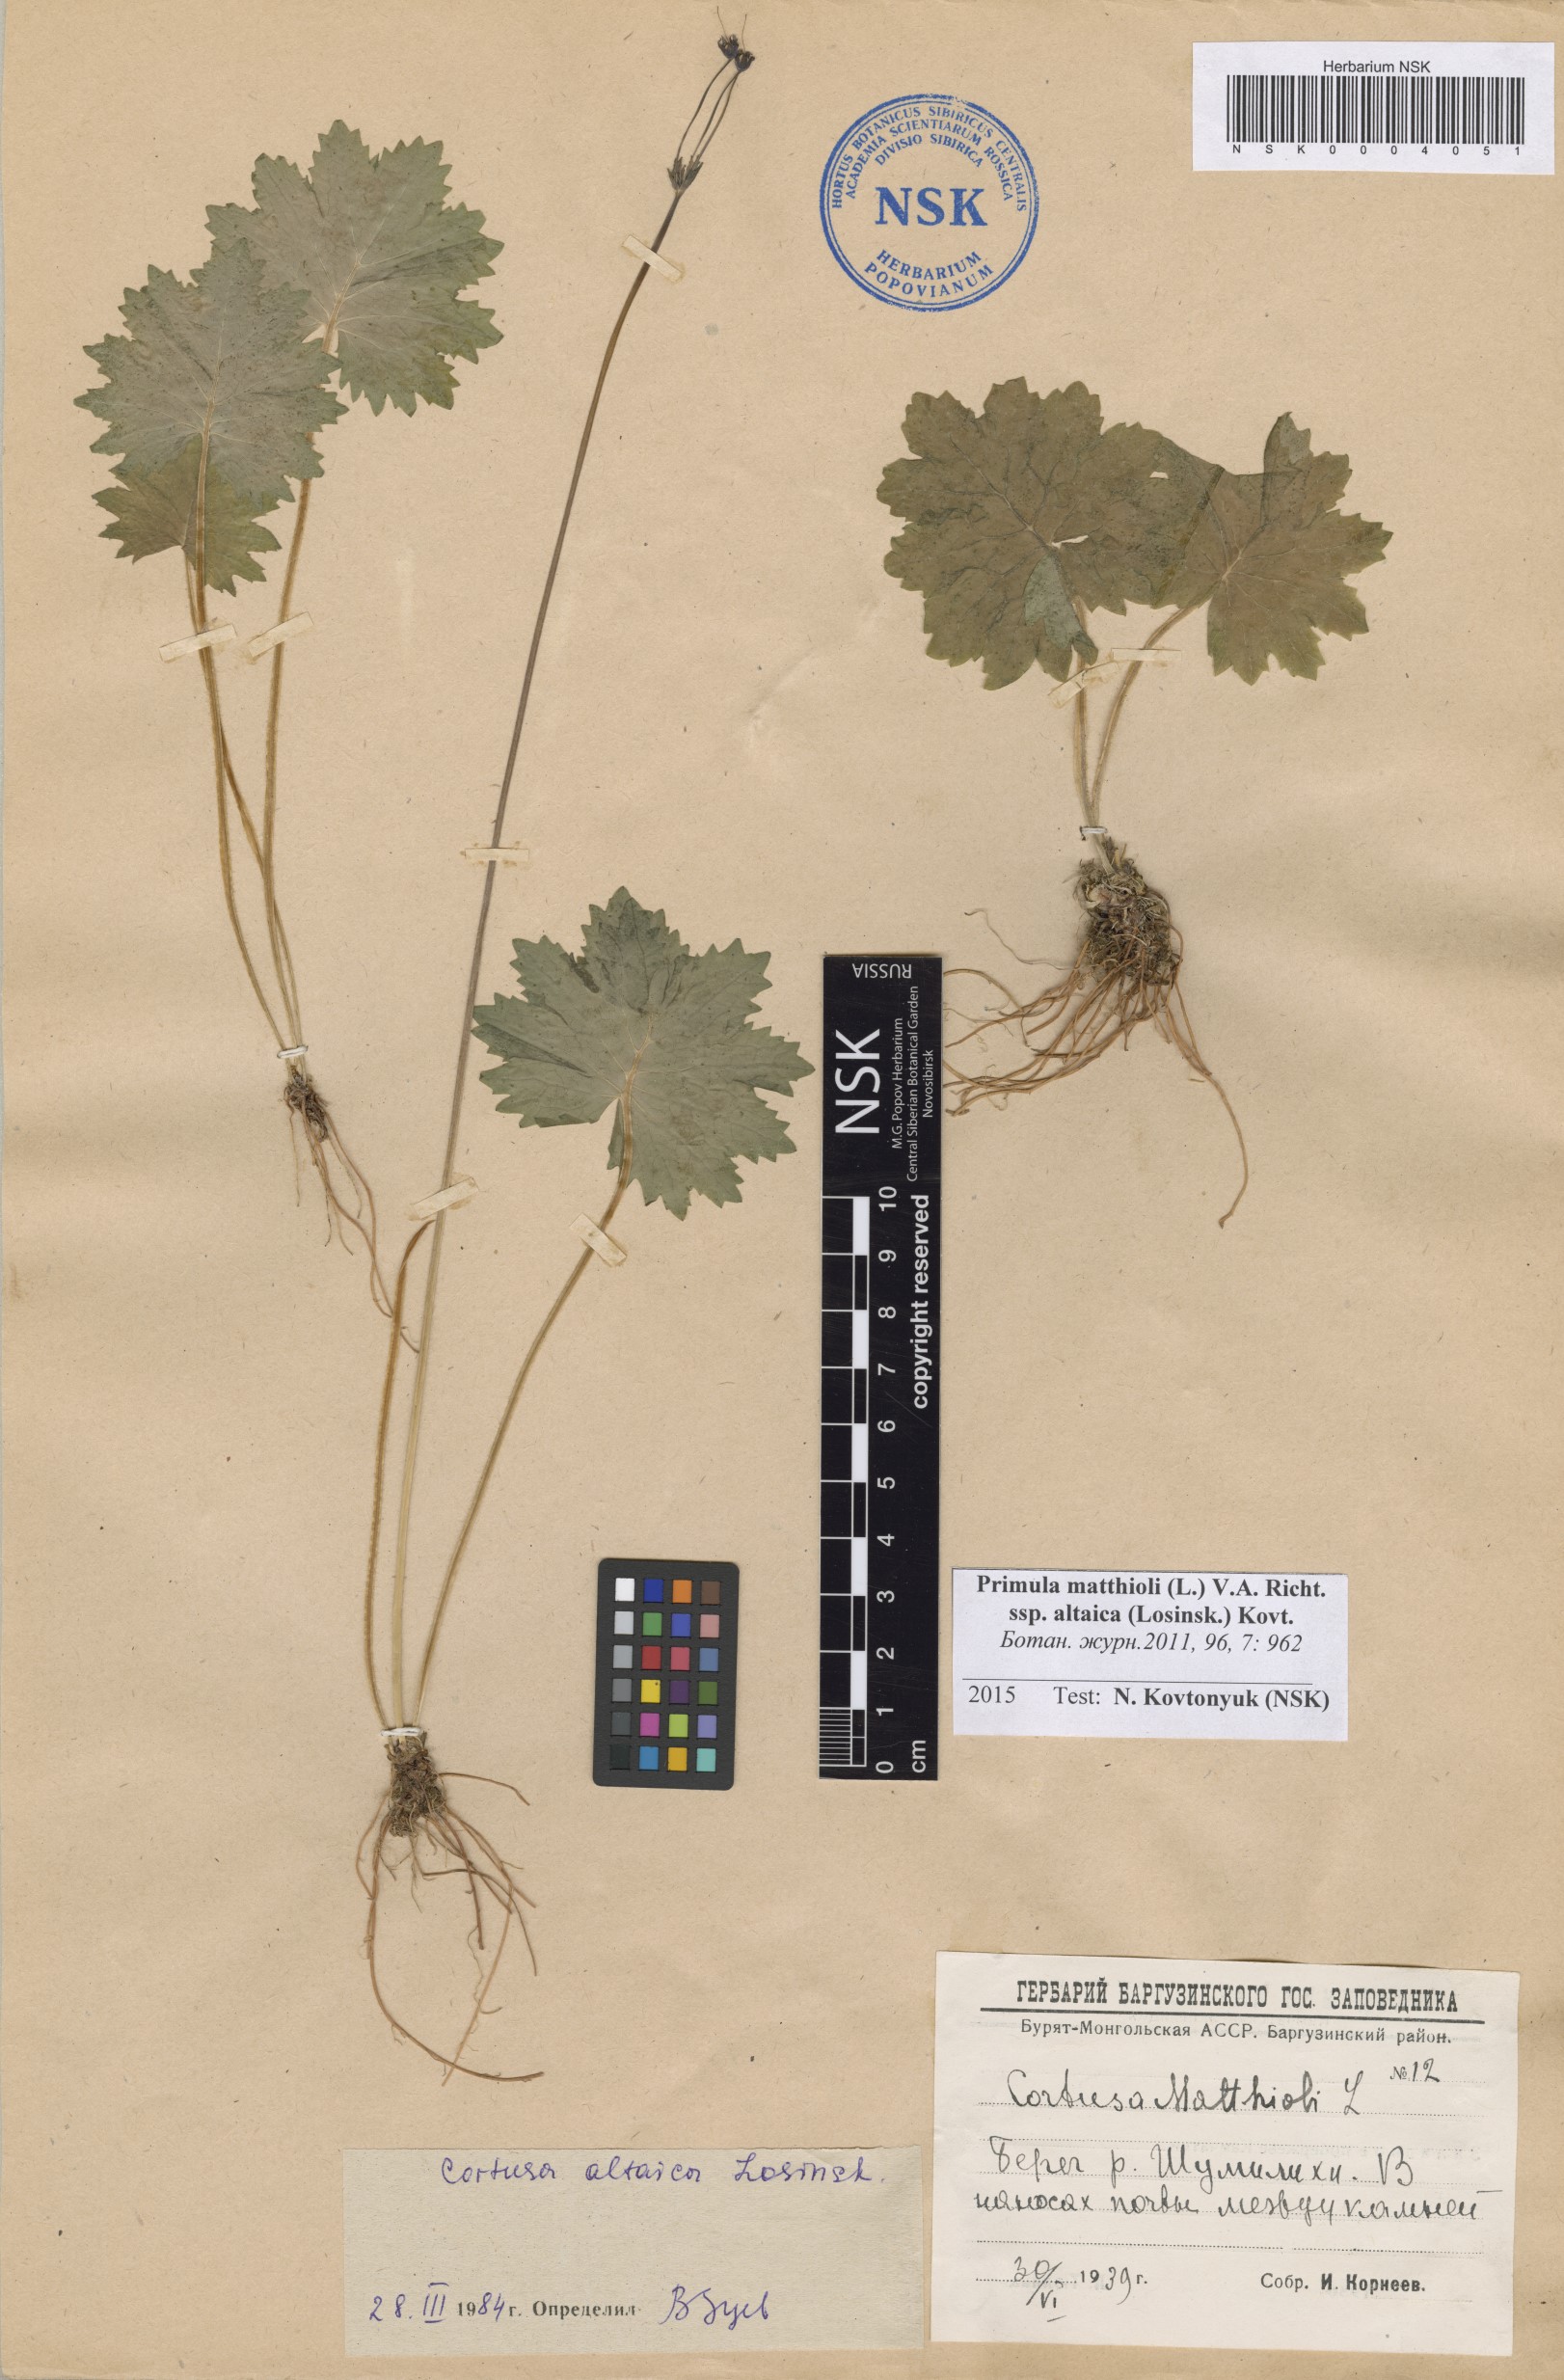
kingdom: Plantae
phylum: Tracheophyta
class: Magnoliopsida
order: Ericales
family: Primulaceae
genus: Primula
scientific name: Primula matthioli
